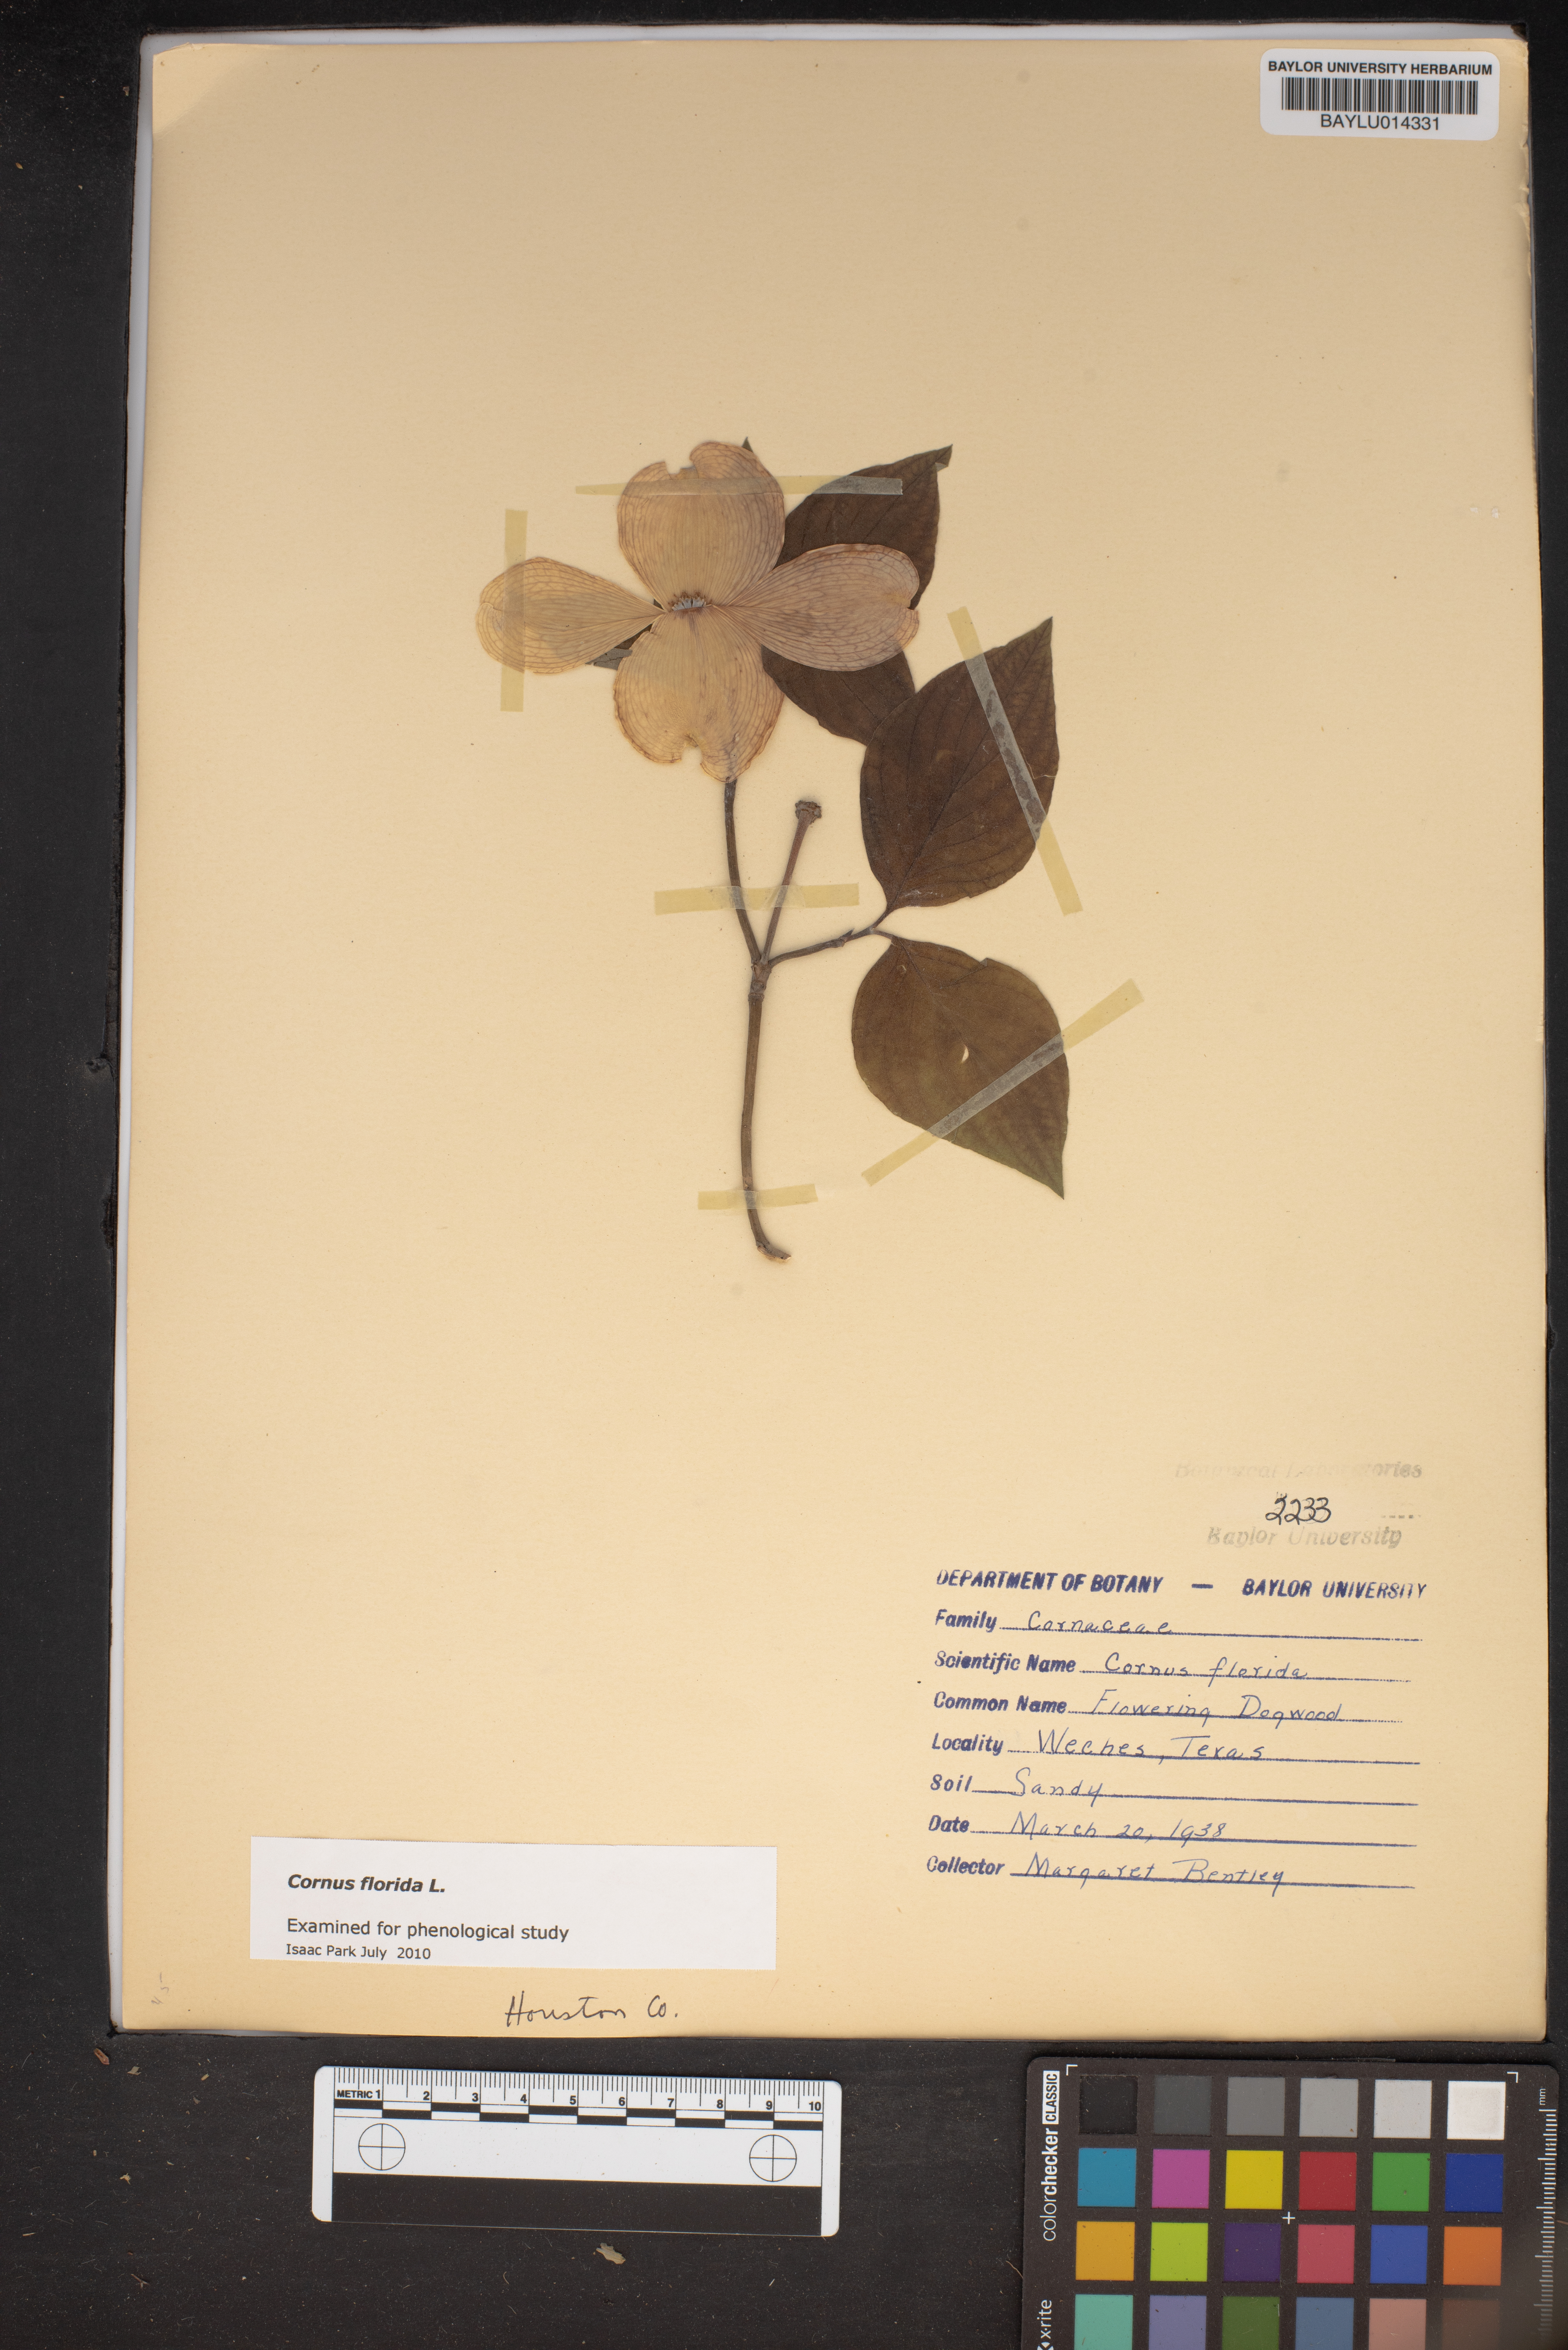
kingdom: Plantae
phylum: Tracheophyta
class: Magnoliopsida
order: Cornales
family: Cornaceae
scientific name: Cornaceae
